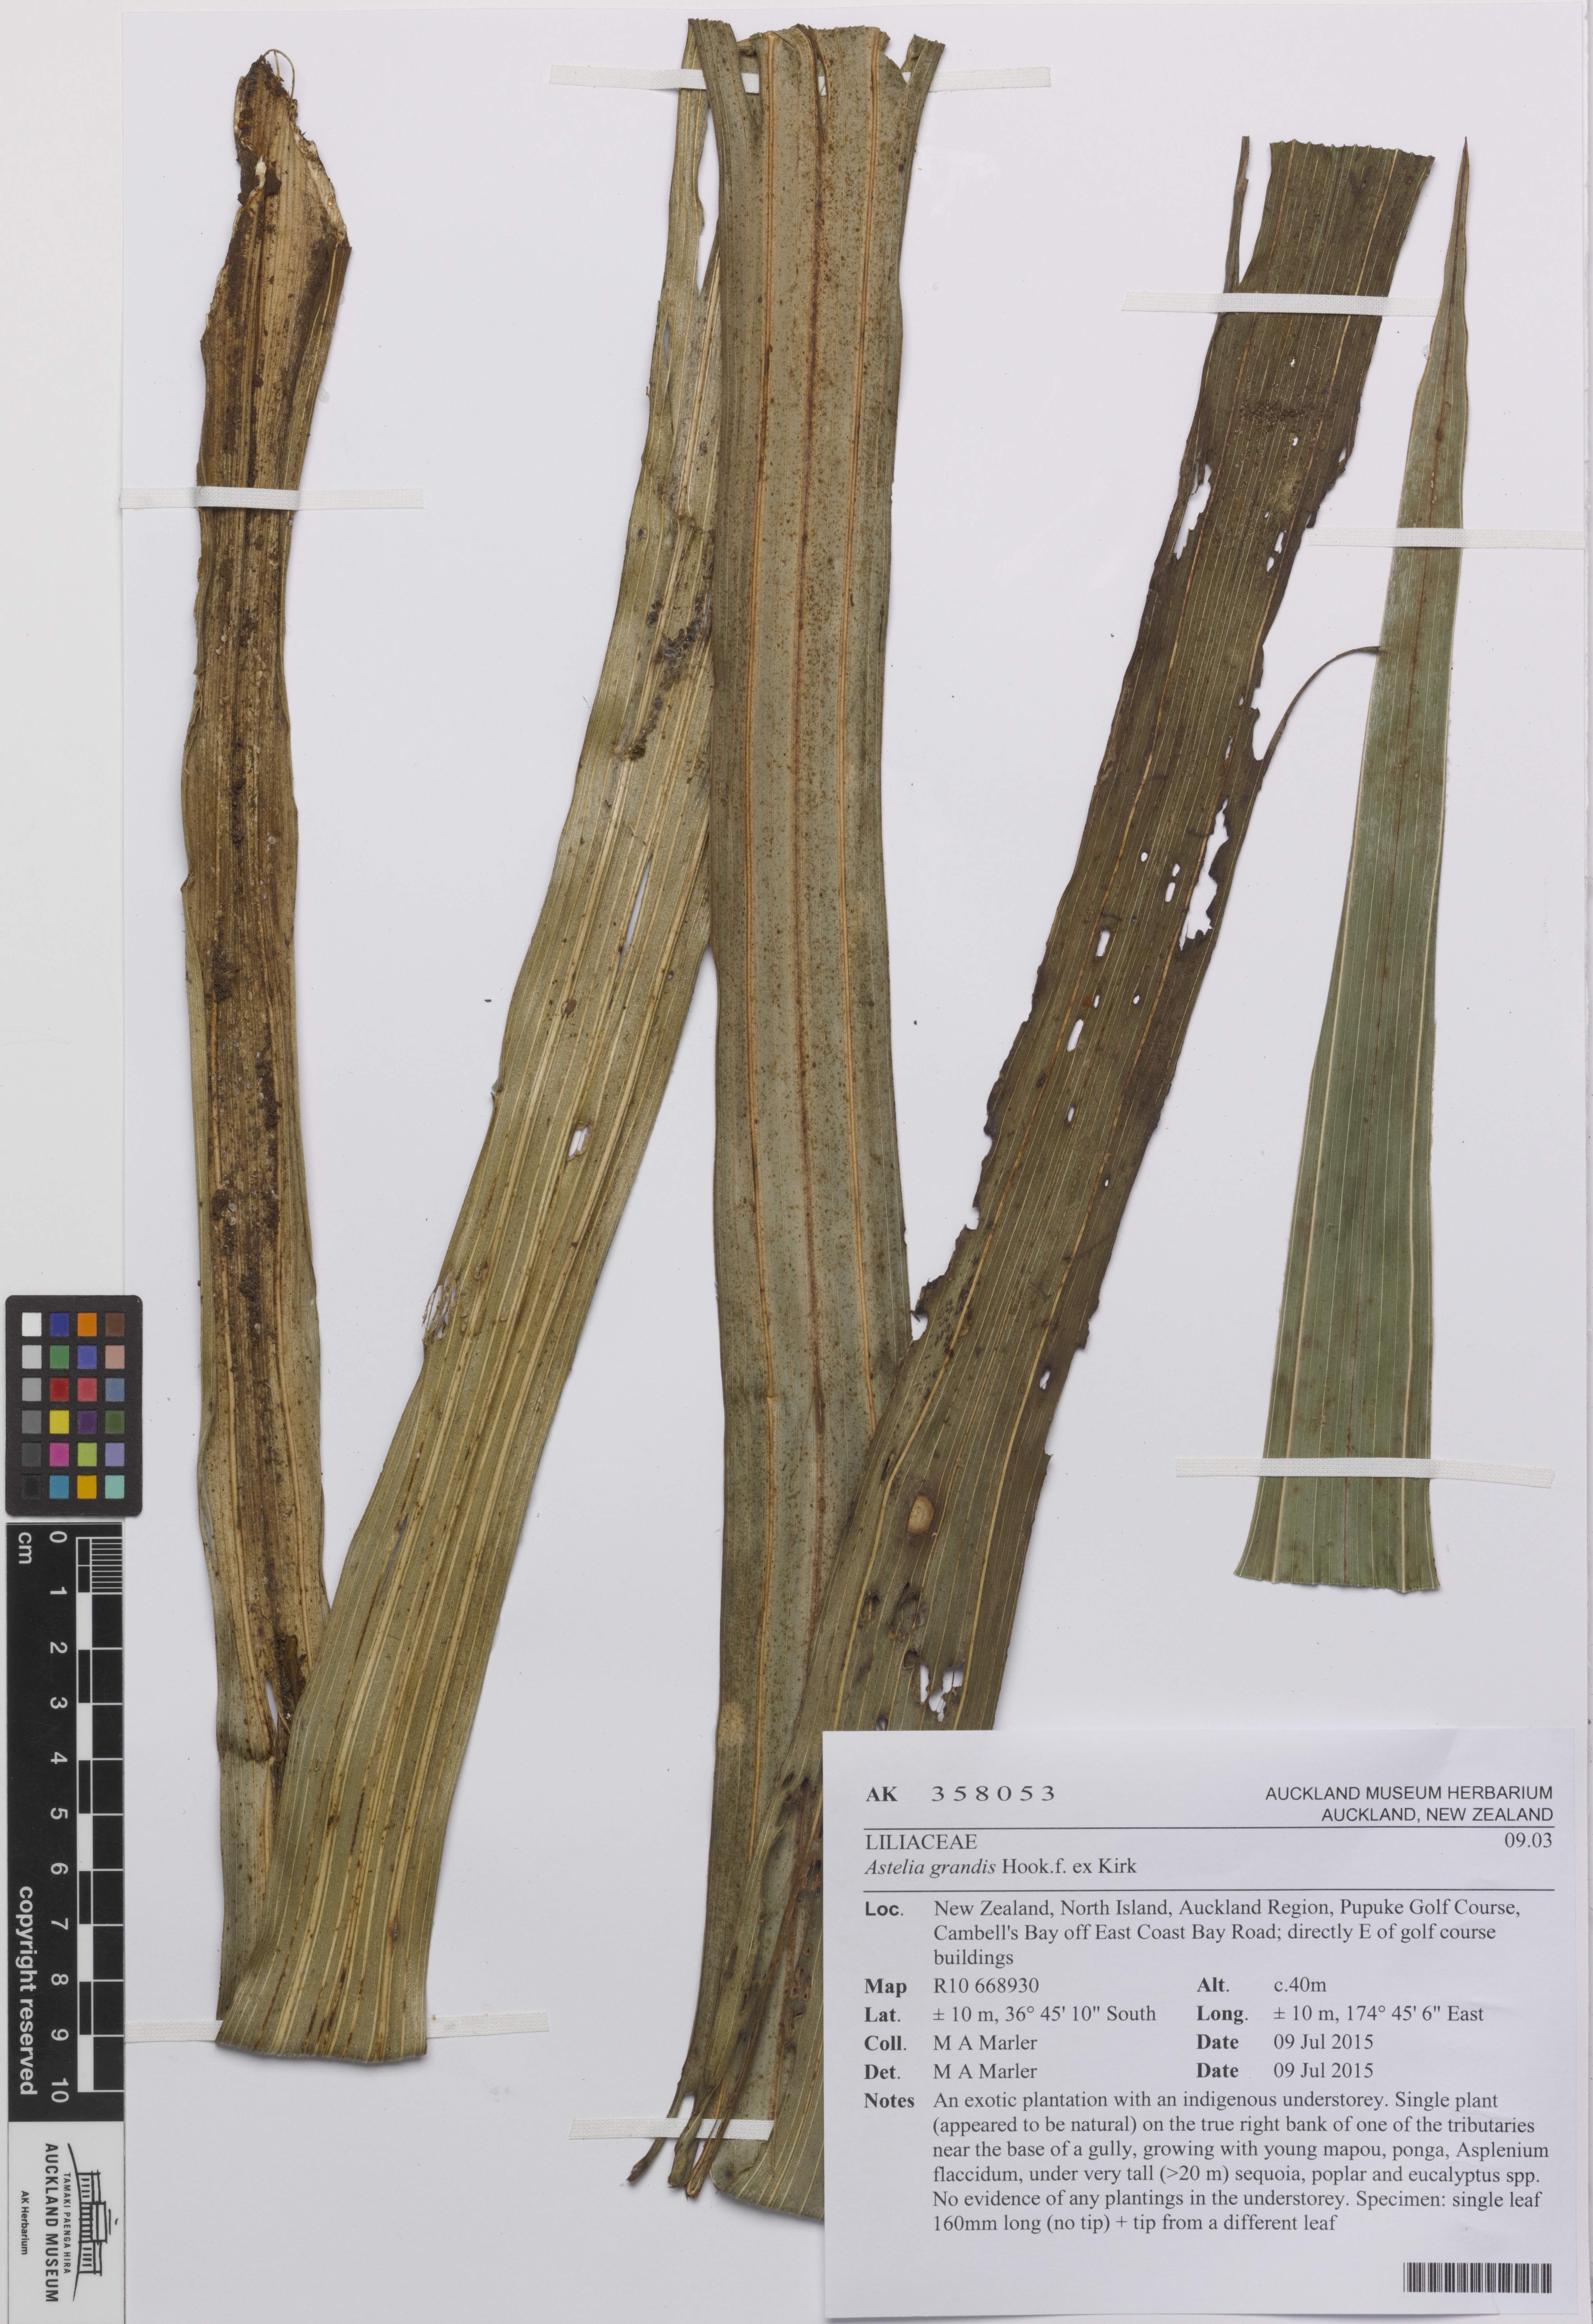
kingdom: Plantae
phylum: Tracheophyta
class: Liliopsida
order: Asparagales
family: Asteliaceae
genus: Astelia
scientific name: Astelia grandis
